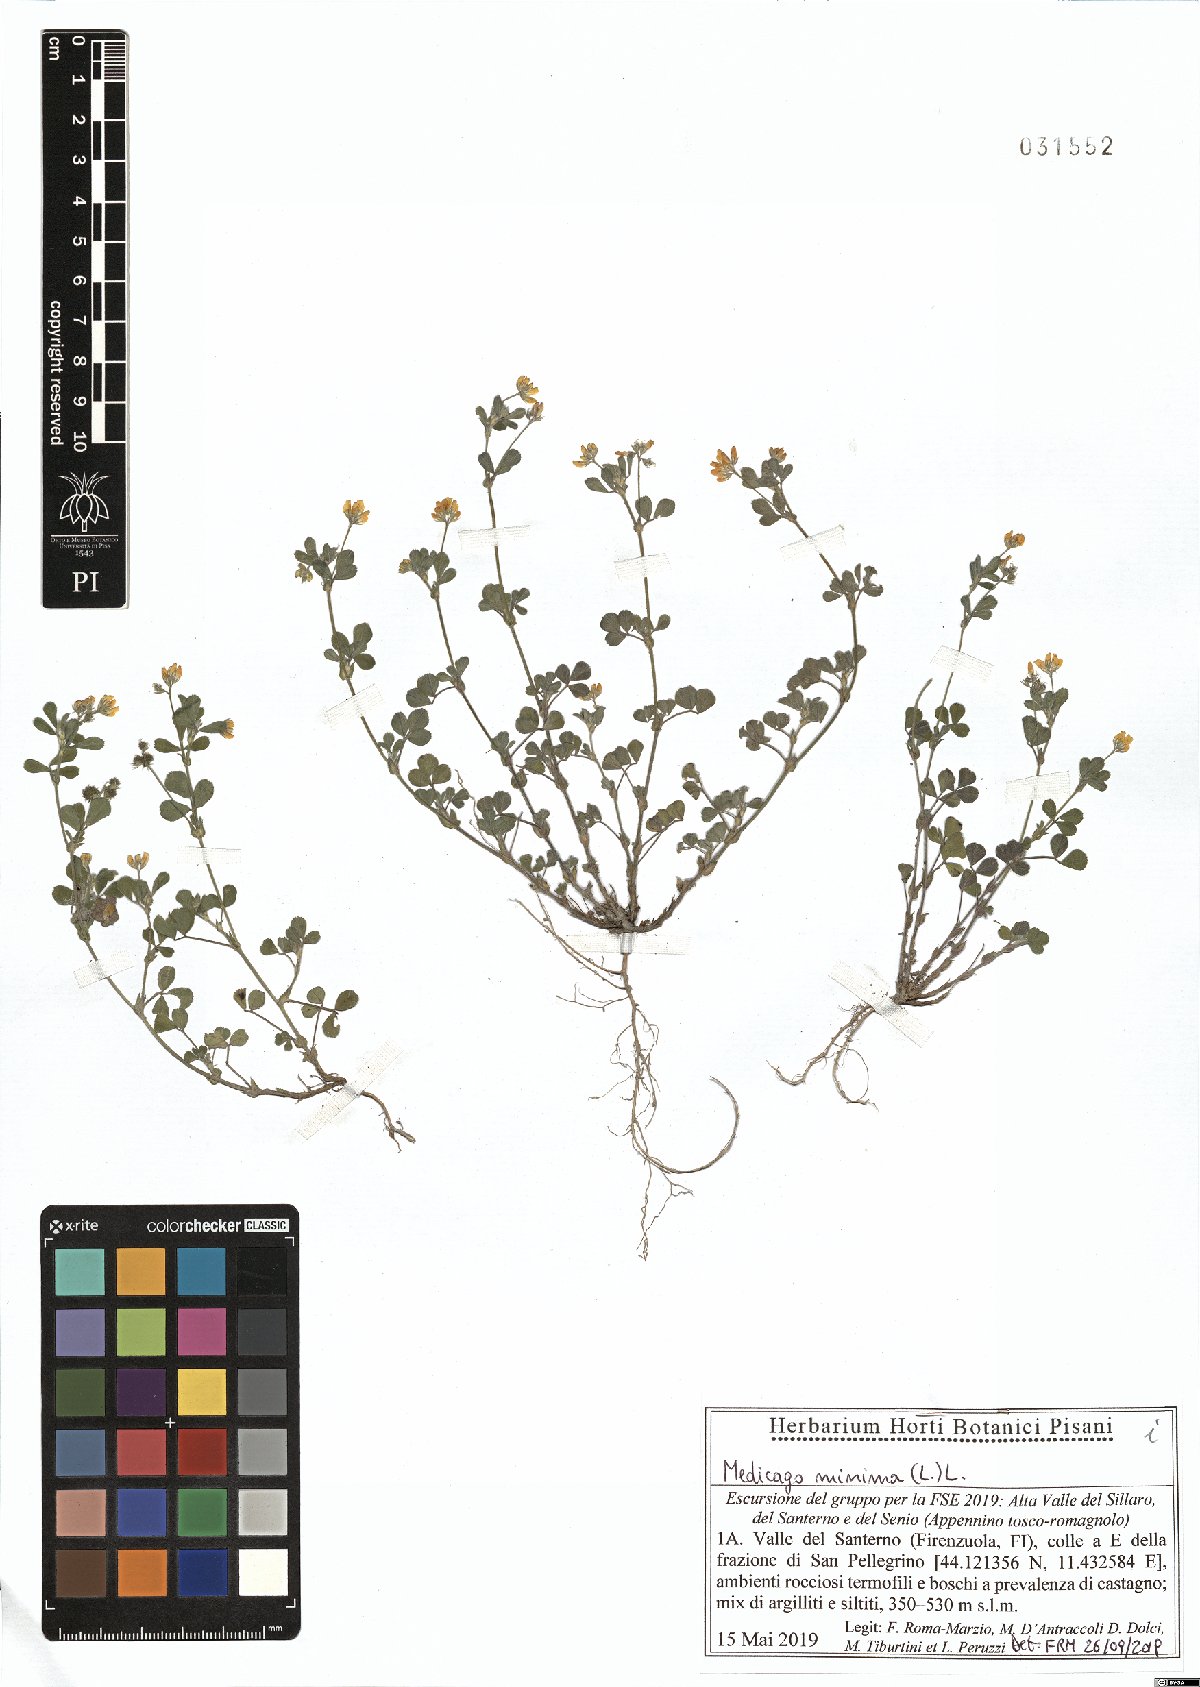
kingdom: Plantae
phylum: Tracheophyta
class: Magnoliopsida
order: Fabales
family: Fabaceae
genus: Medicago
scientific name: Medicago minima
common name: Little bur-clover
